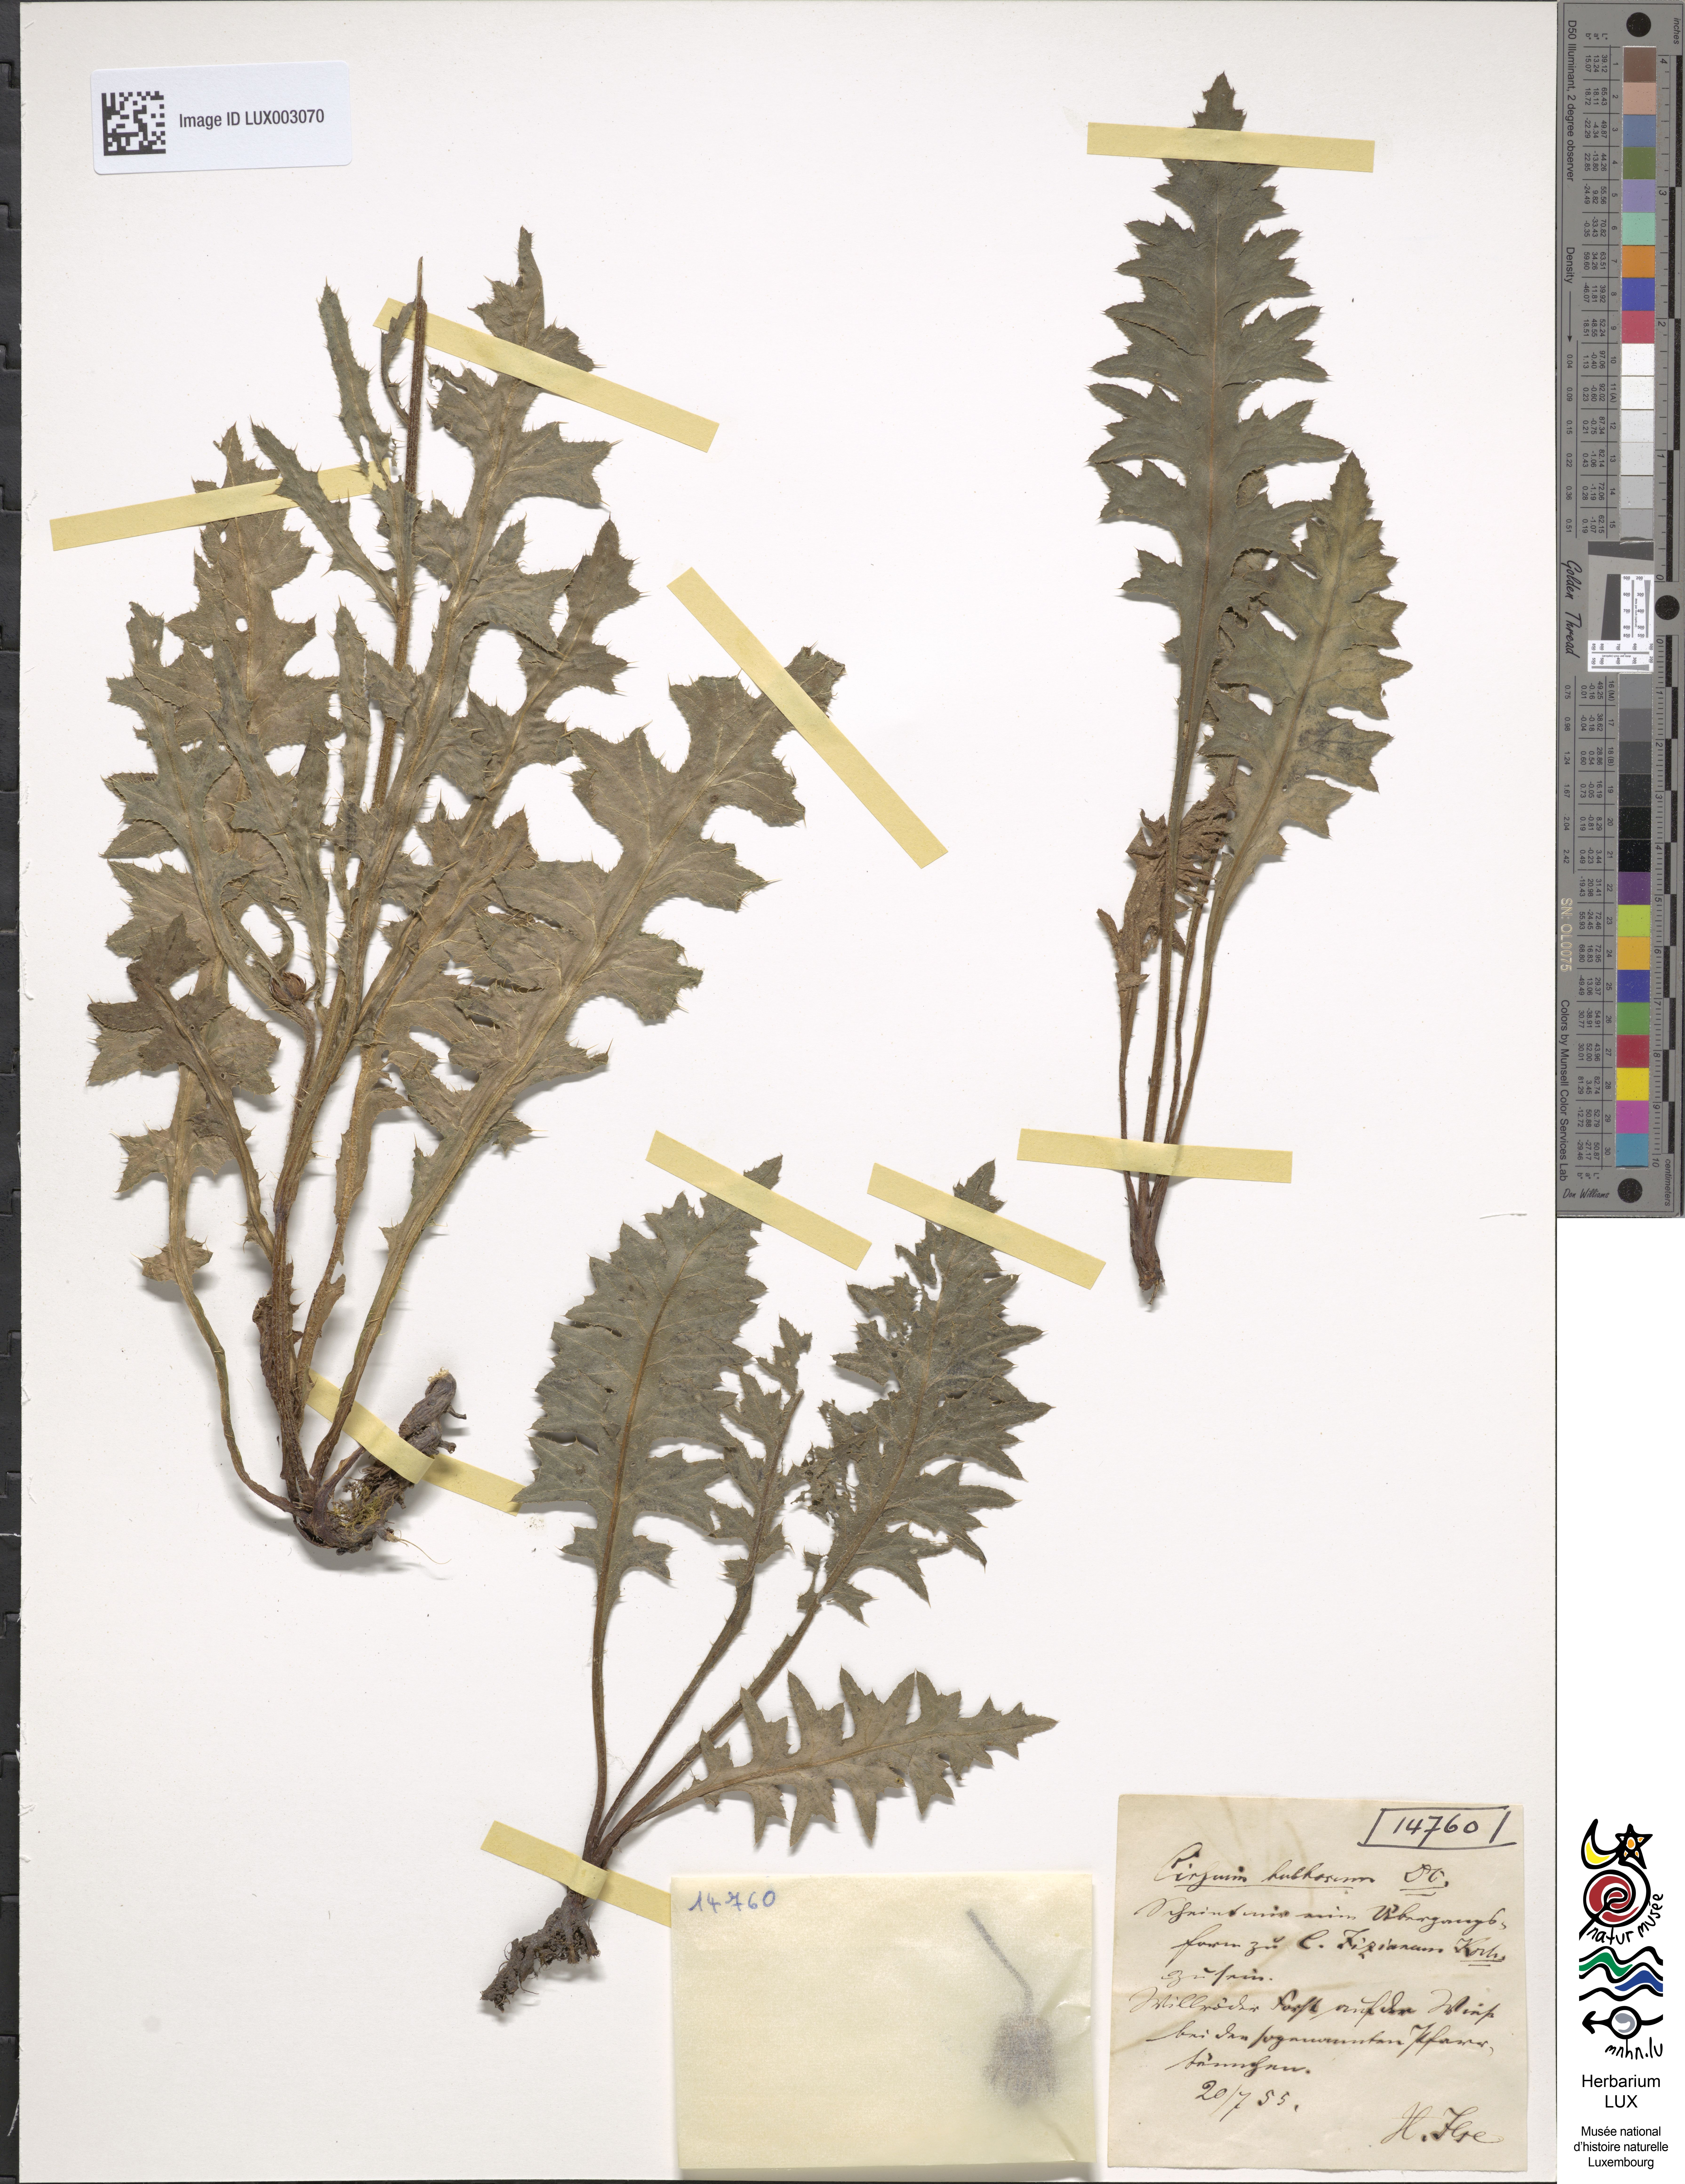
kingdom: Plantae
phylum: Tracheophyta
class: Magnoliopsida
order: Asterales
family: Asteraceae
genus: Cirsium
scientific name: Cirsium tuberosum
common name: Tuberous thistle
